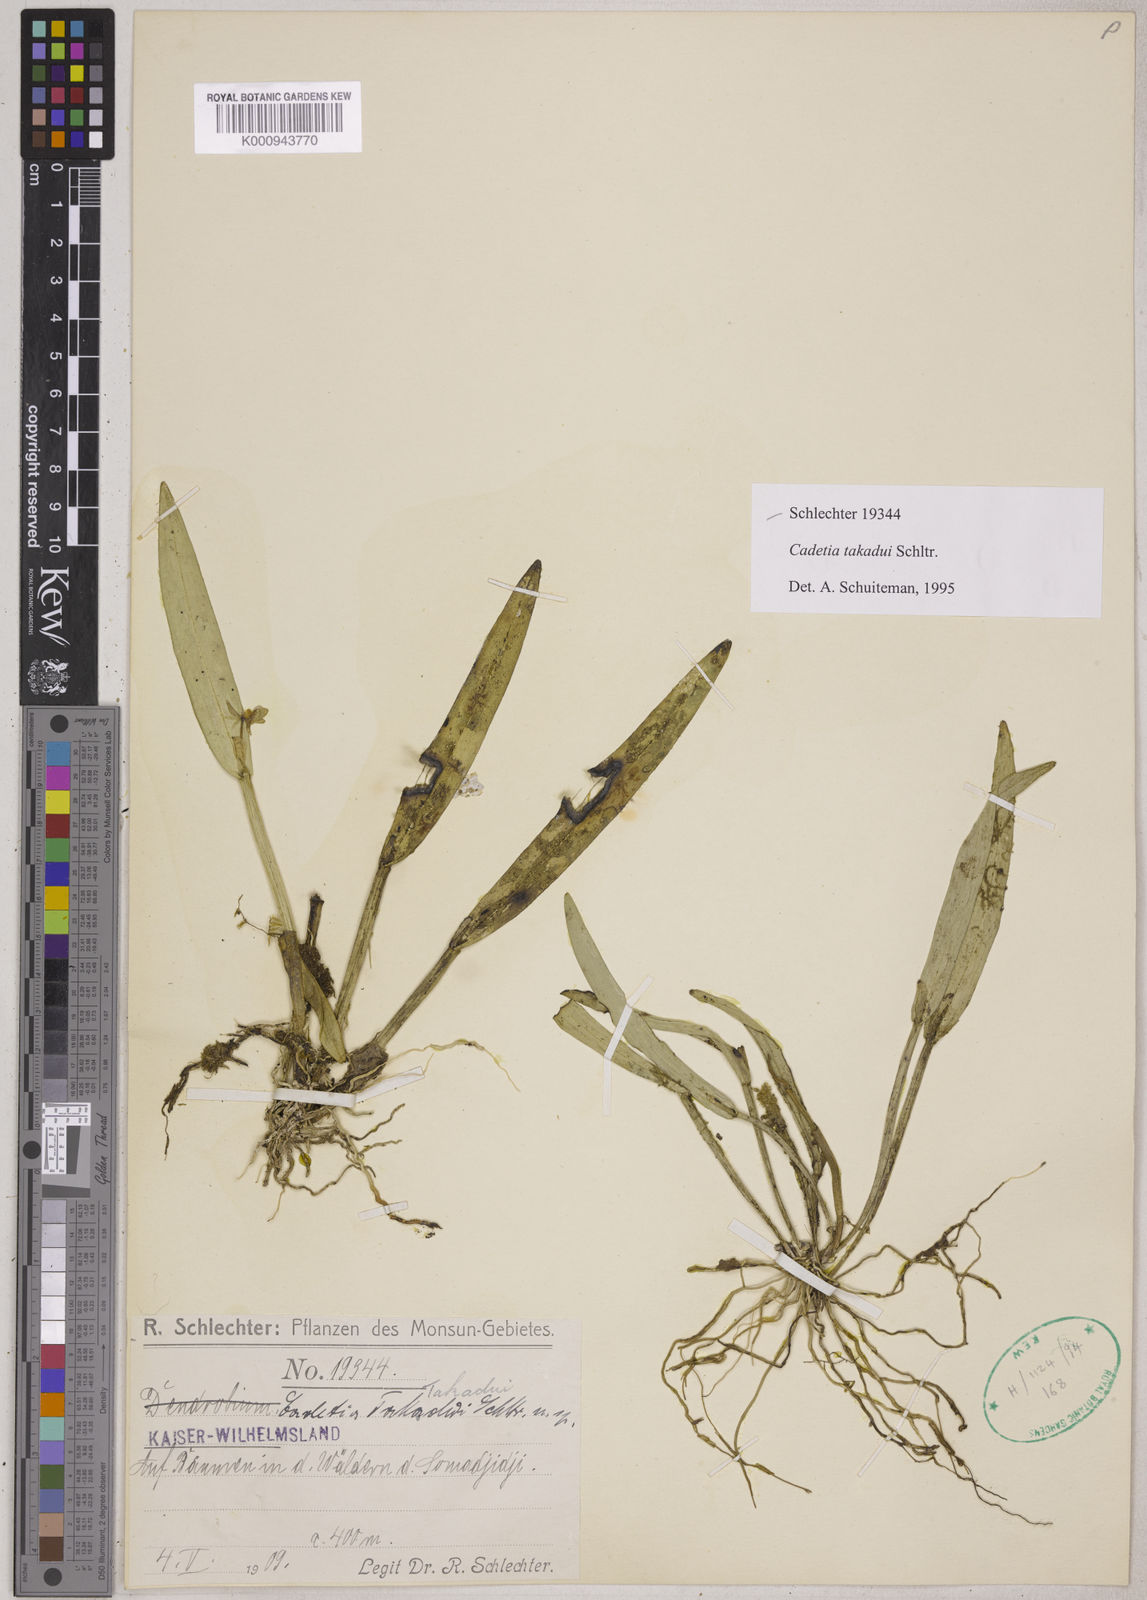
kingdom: Plantae
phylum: Tracheophyta
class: Liliopsida
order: Asparagales
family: Orchidaceae
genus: Dendrobium
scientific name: Dendrobium takadui
